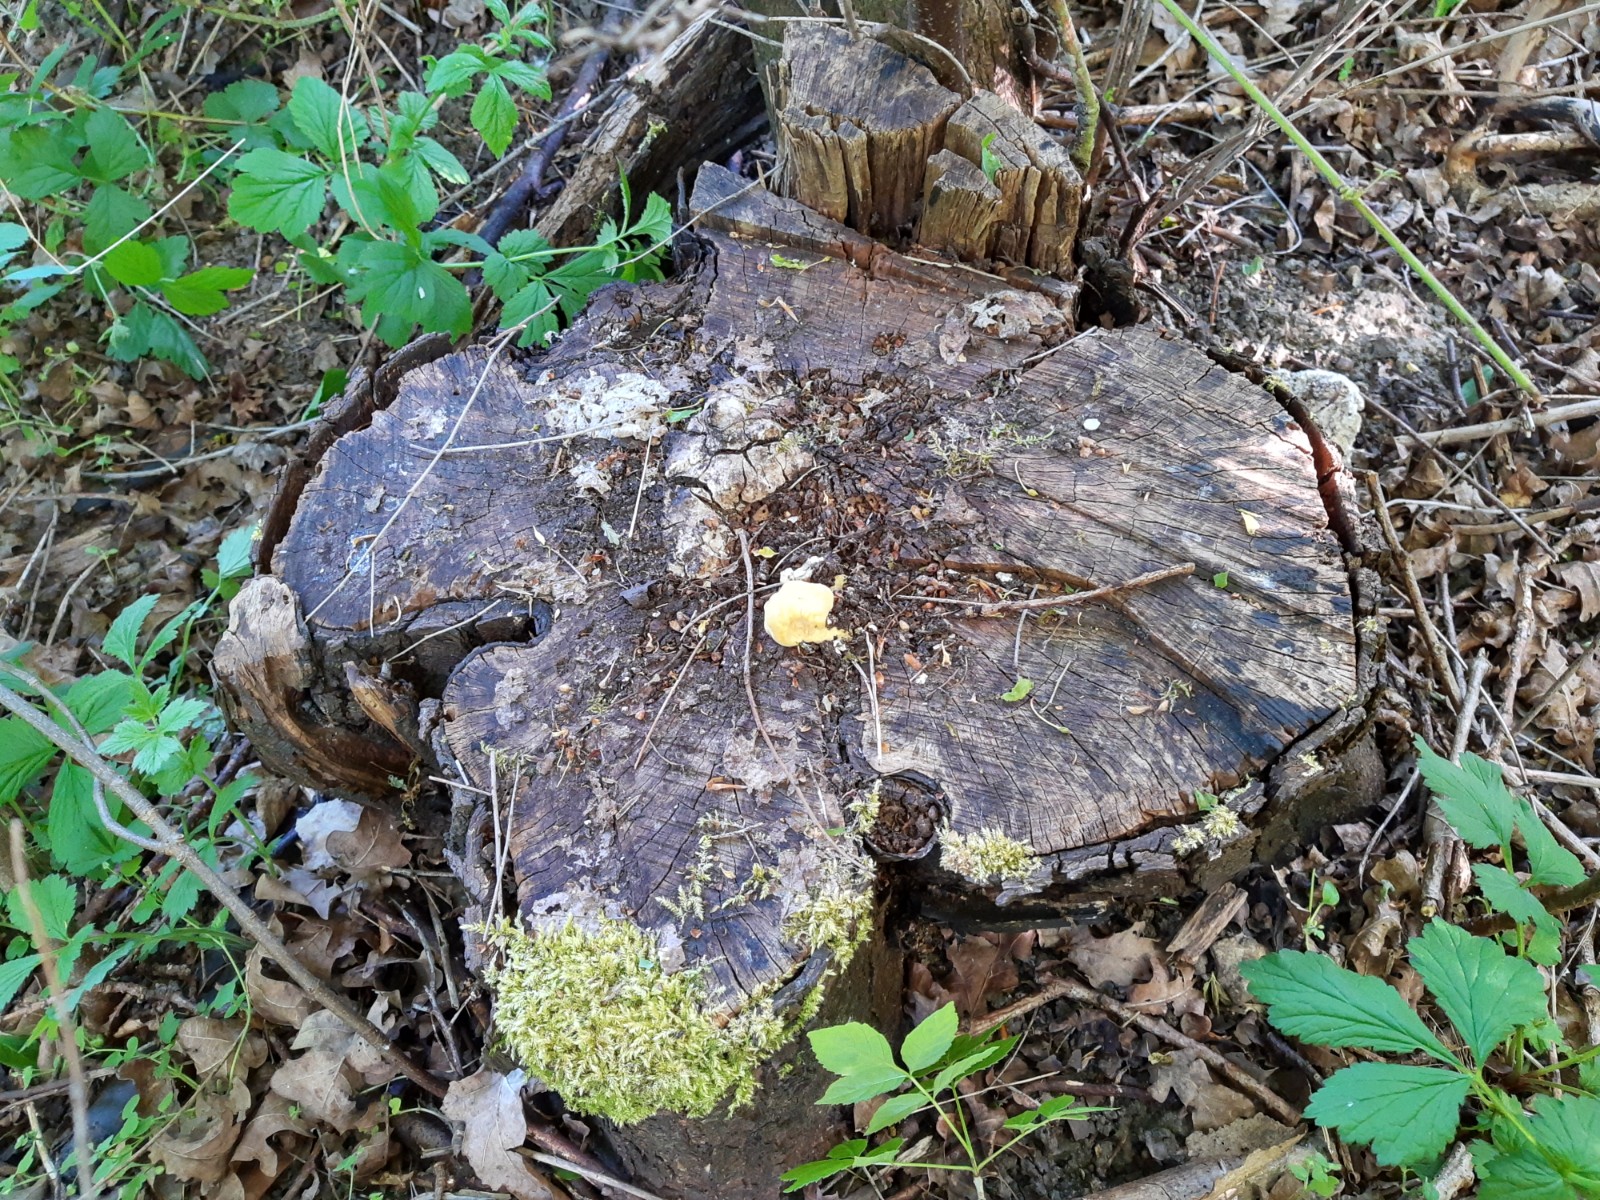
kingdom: Fungi
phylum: Basidiomycota
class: Agaricomycetes
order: Polyporales
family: Laetiporaceae
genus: Laetiporus
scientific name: Laetiporus sulphureus
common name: svovlporesvamp
